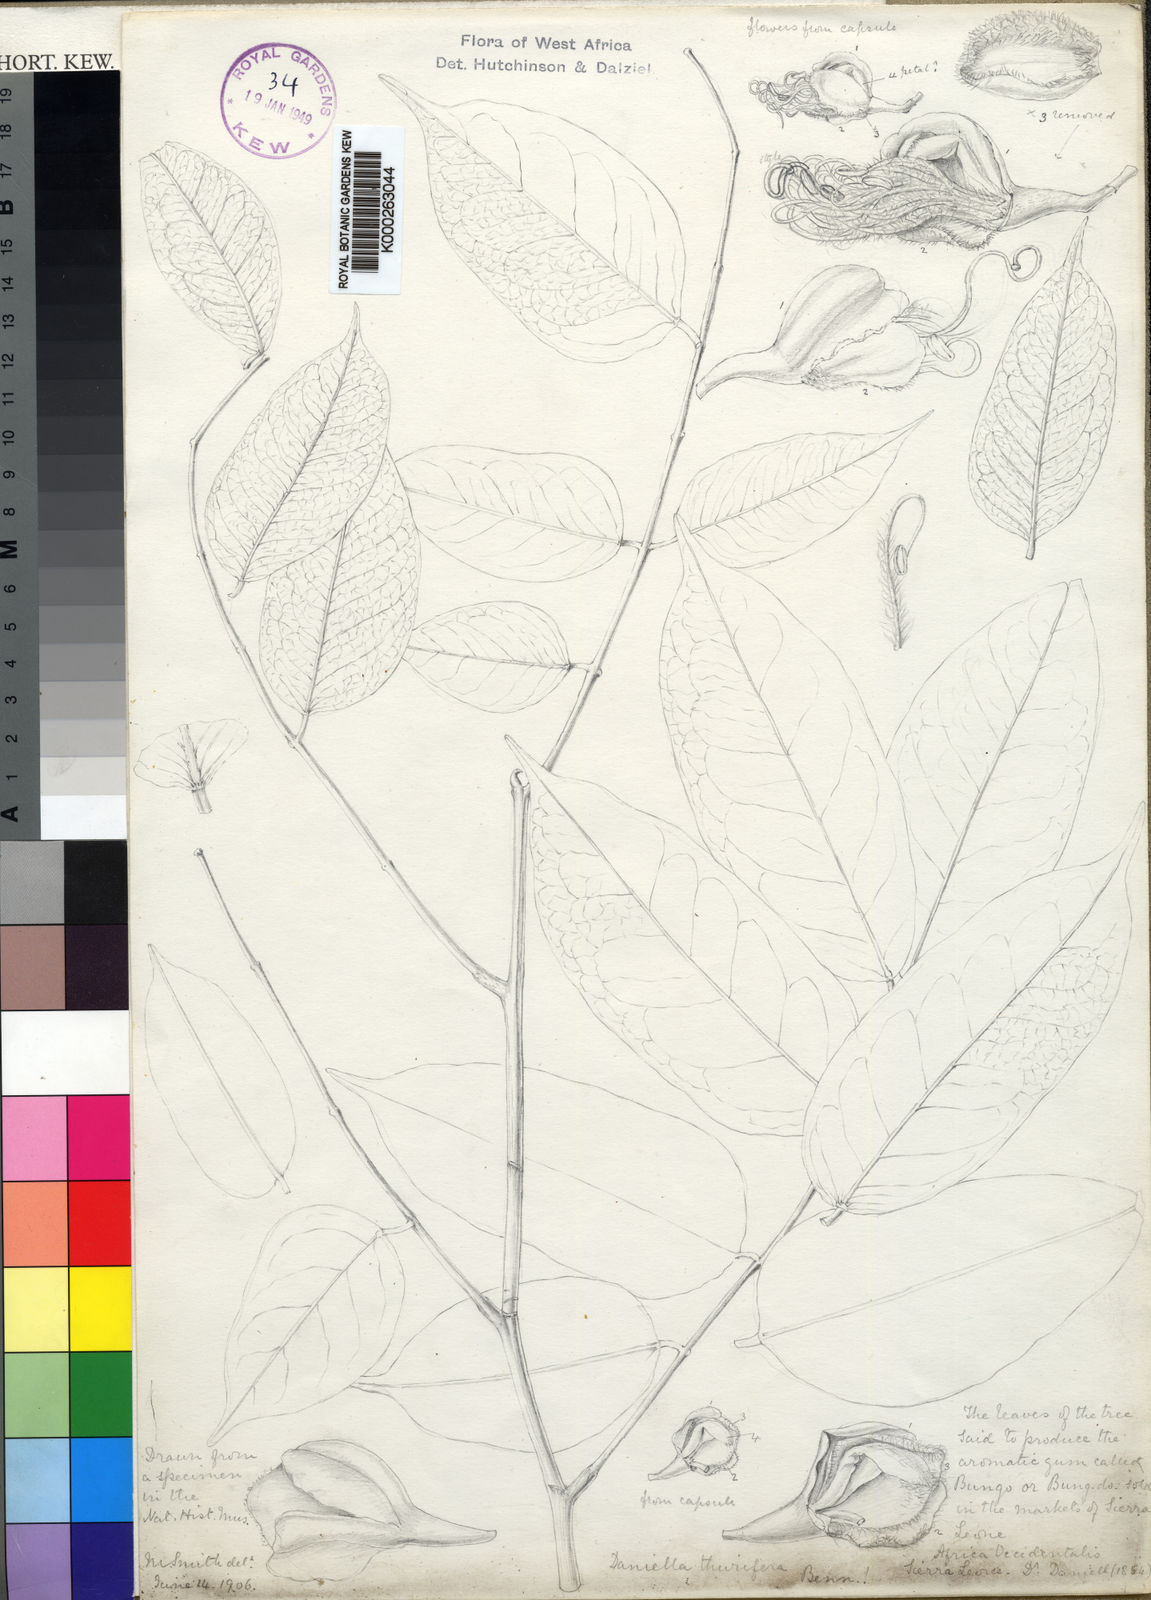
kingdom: Plantae
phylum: Tracheophyta
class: Magnoliopsida
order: Fabales
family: Fabaceae
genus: Daniellia
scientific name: Daniellia thurifera
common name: Sudan copal
